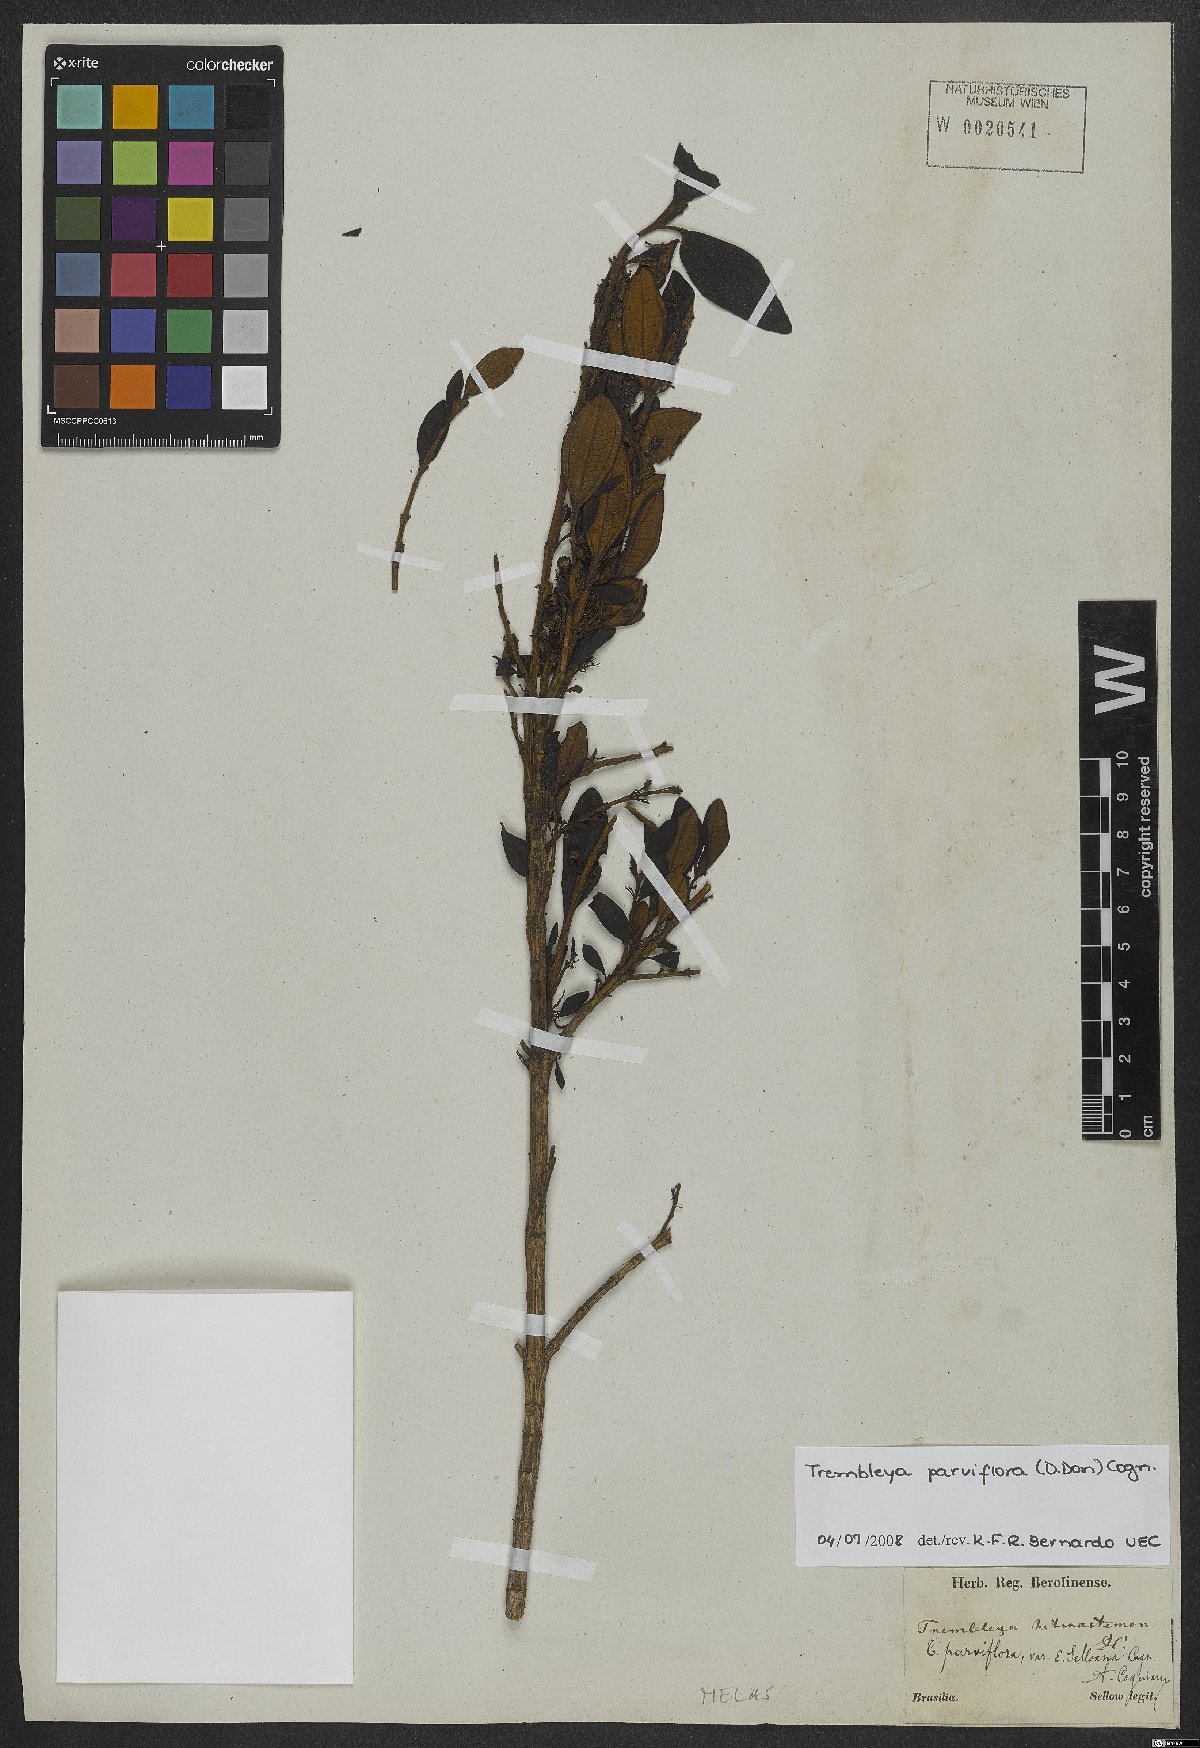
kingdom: Plantae
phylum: Tracheophyta
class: Magnoliopsida
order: Myrtales
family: Melastomataceae
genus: Microlicia
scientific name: Microlicia parviflora
